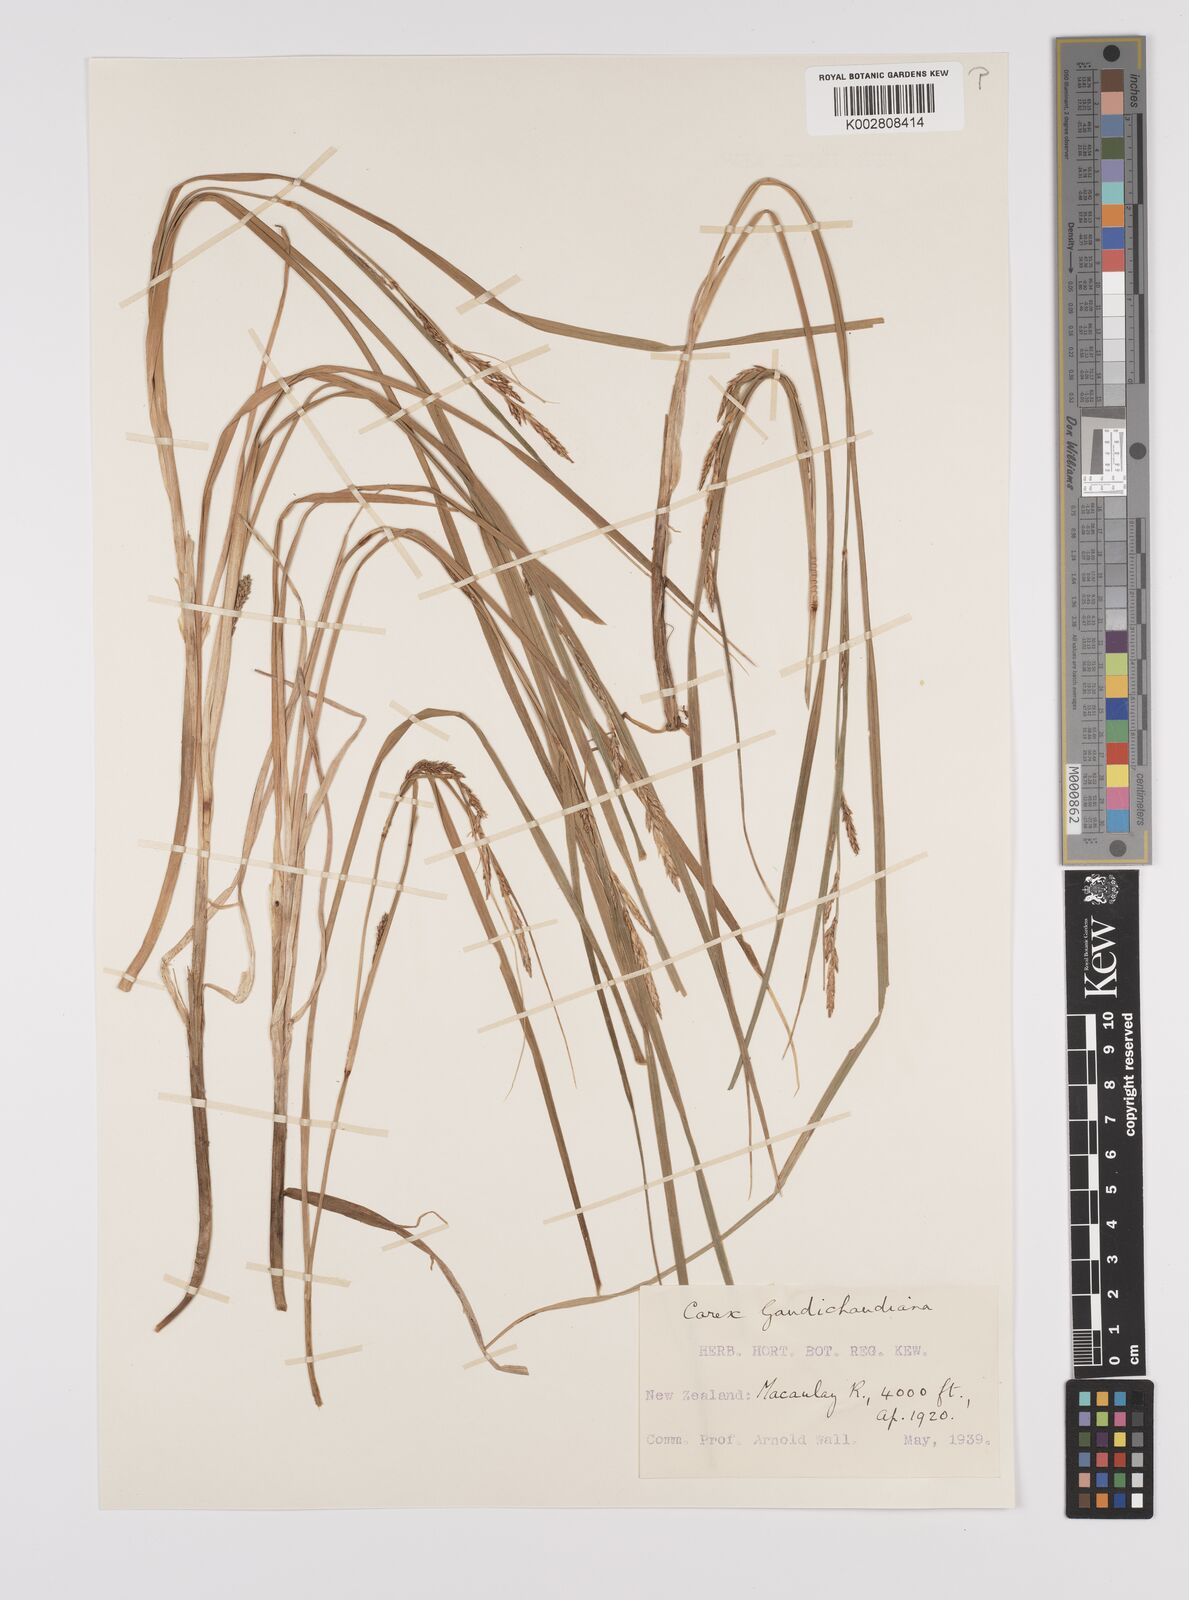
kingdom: Plantae
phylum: Tracheophyta
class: Liliopsida
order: Poales
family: Cyperaceae
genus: Carex
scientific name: Carex gaudichaudiana
